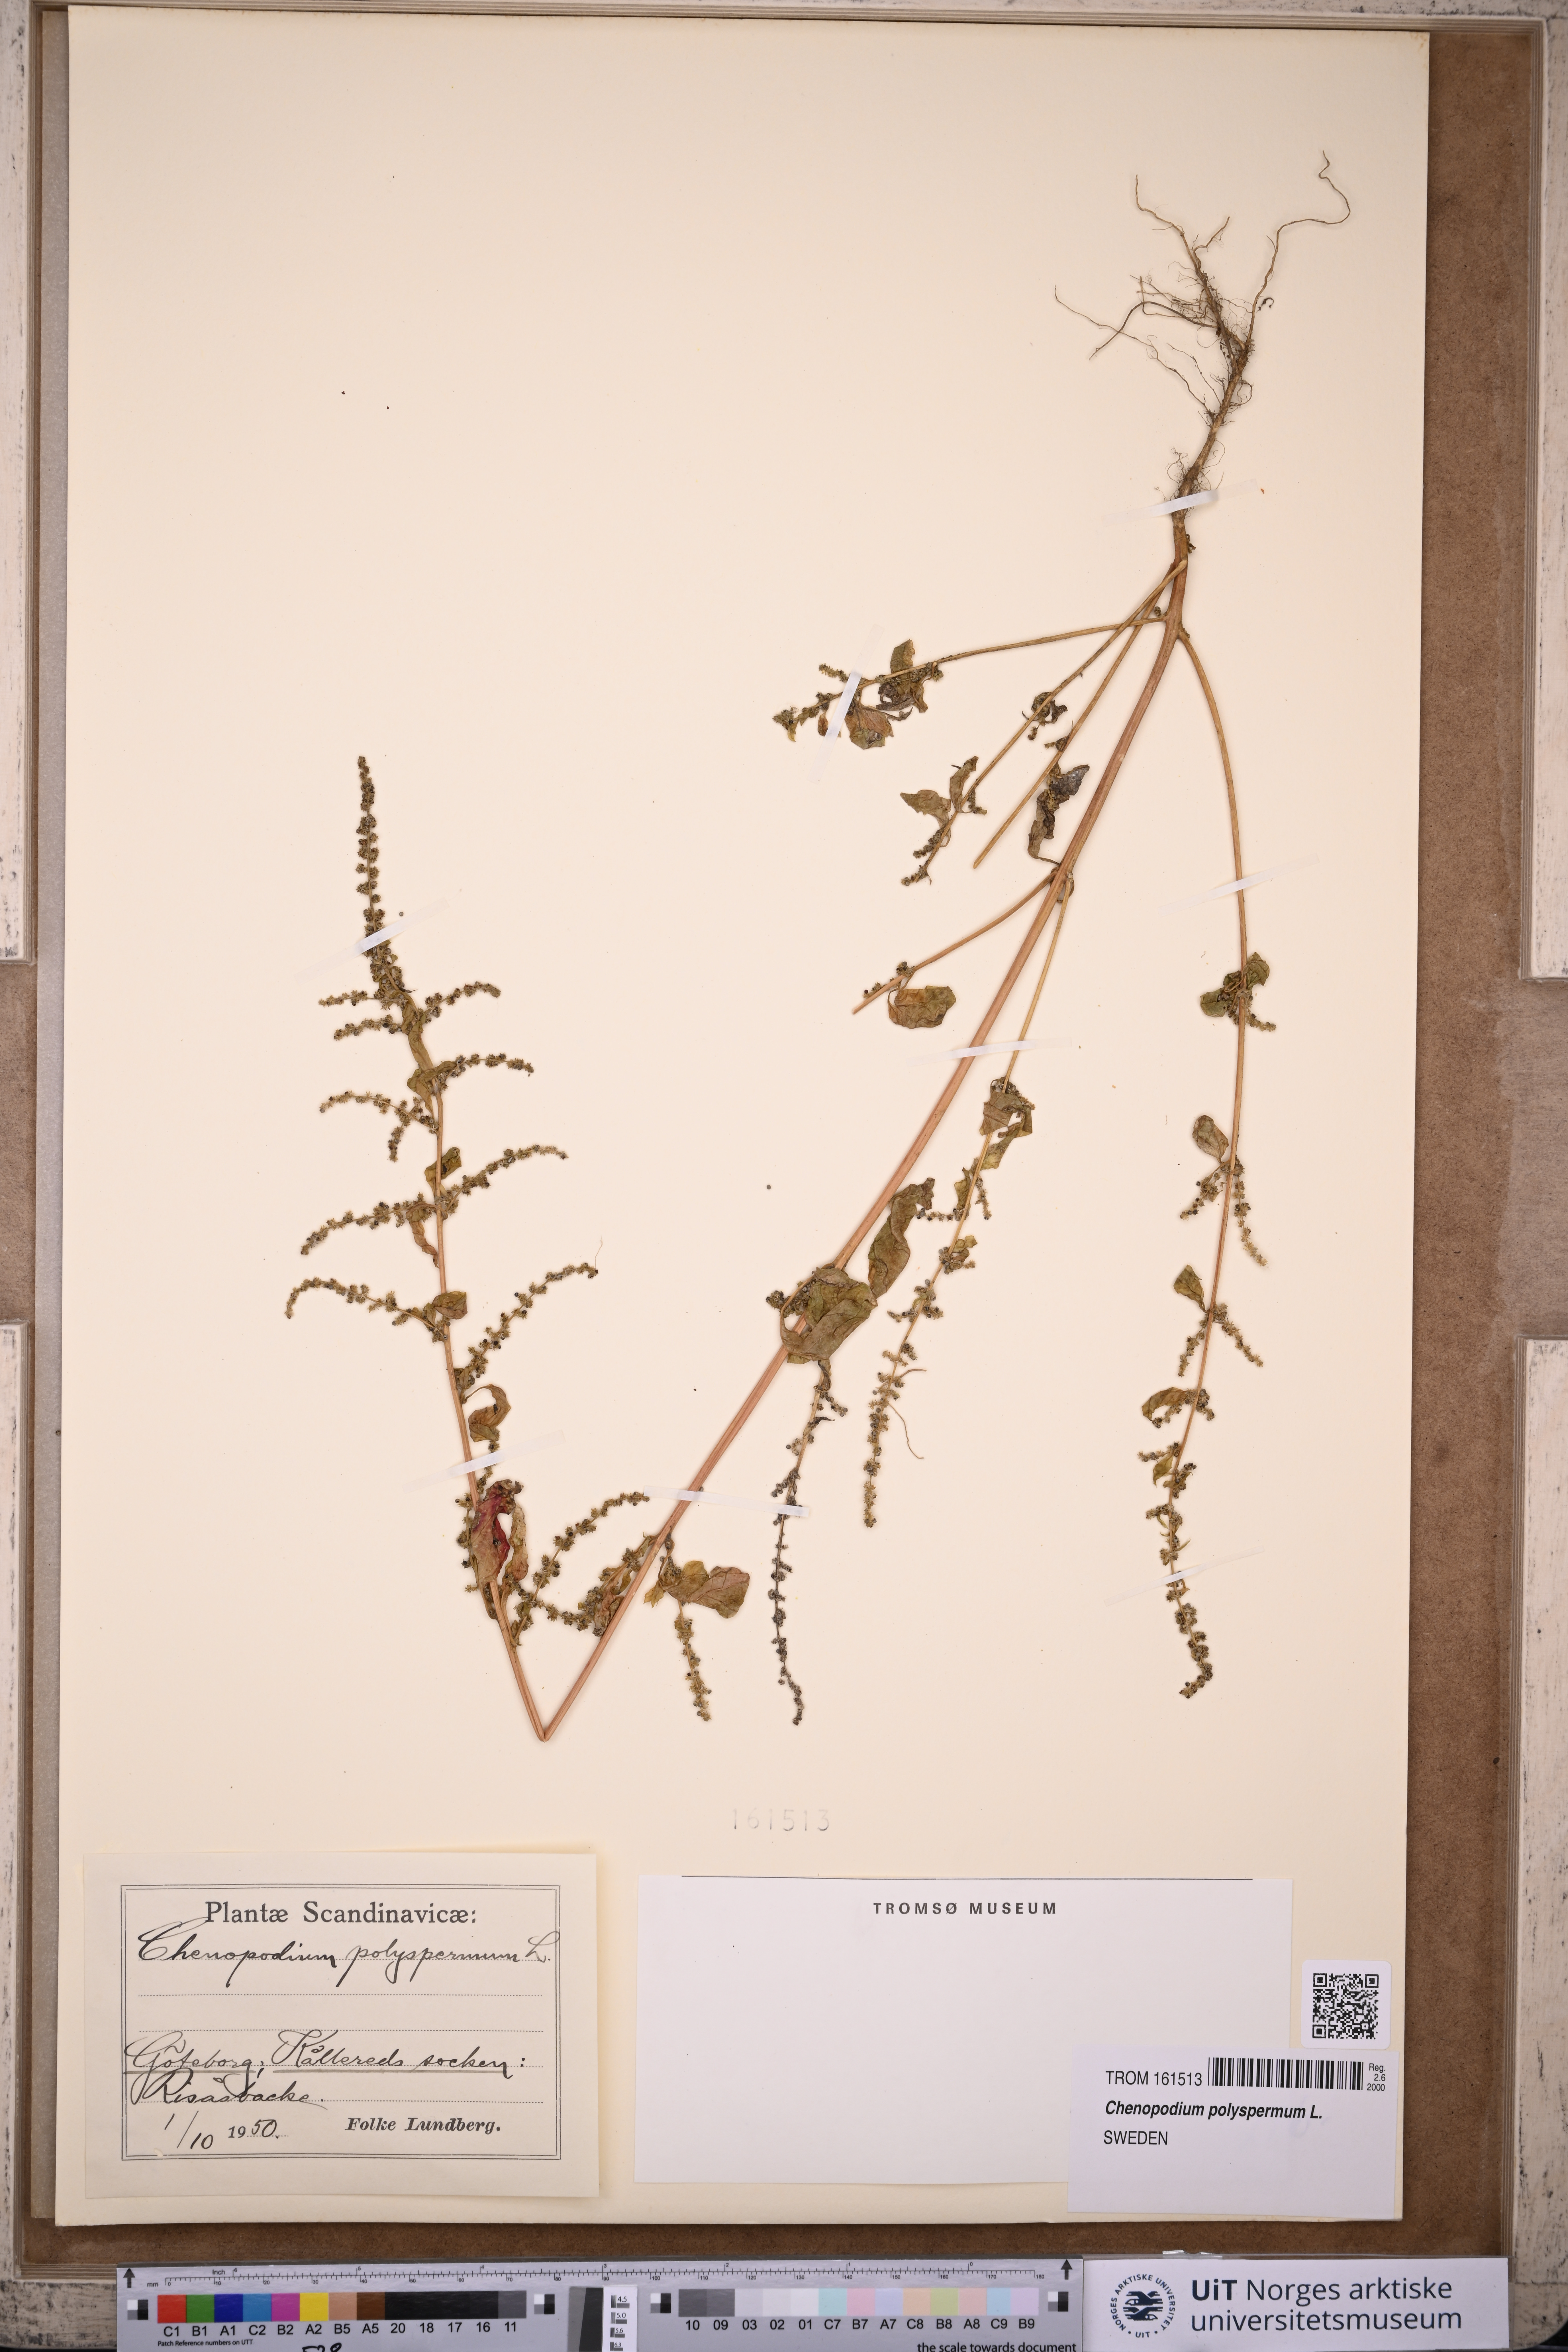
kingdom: Plantae
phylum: Tracheophyta
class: Magnoliopsida
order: Caryophyllales
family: Amaranthaceae
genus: Lipandra
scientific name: Lipandra polysperma
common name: Many-seed goosefoot
